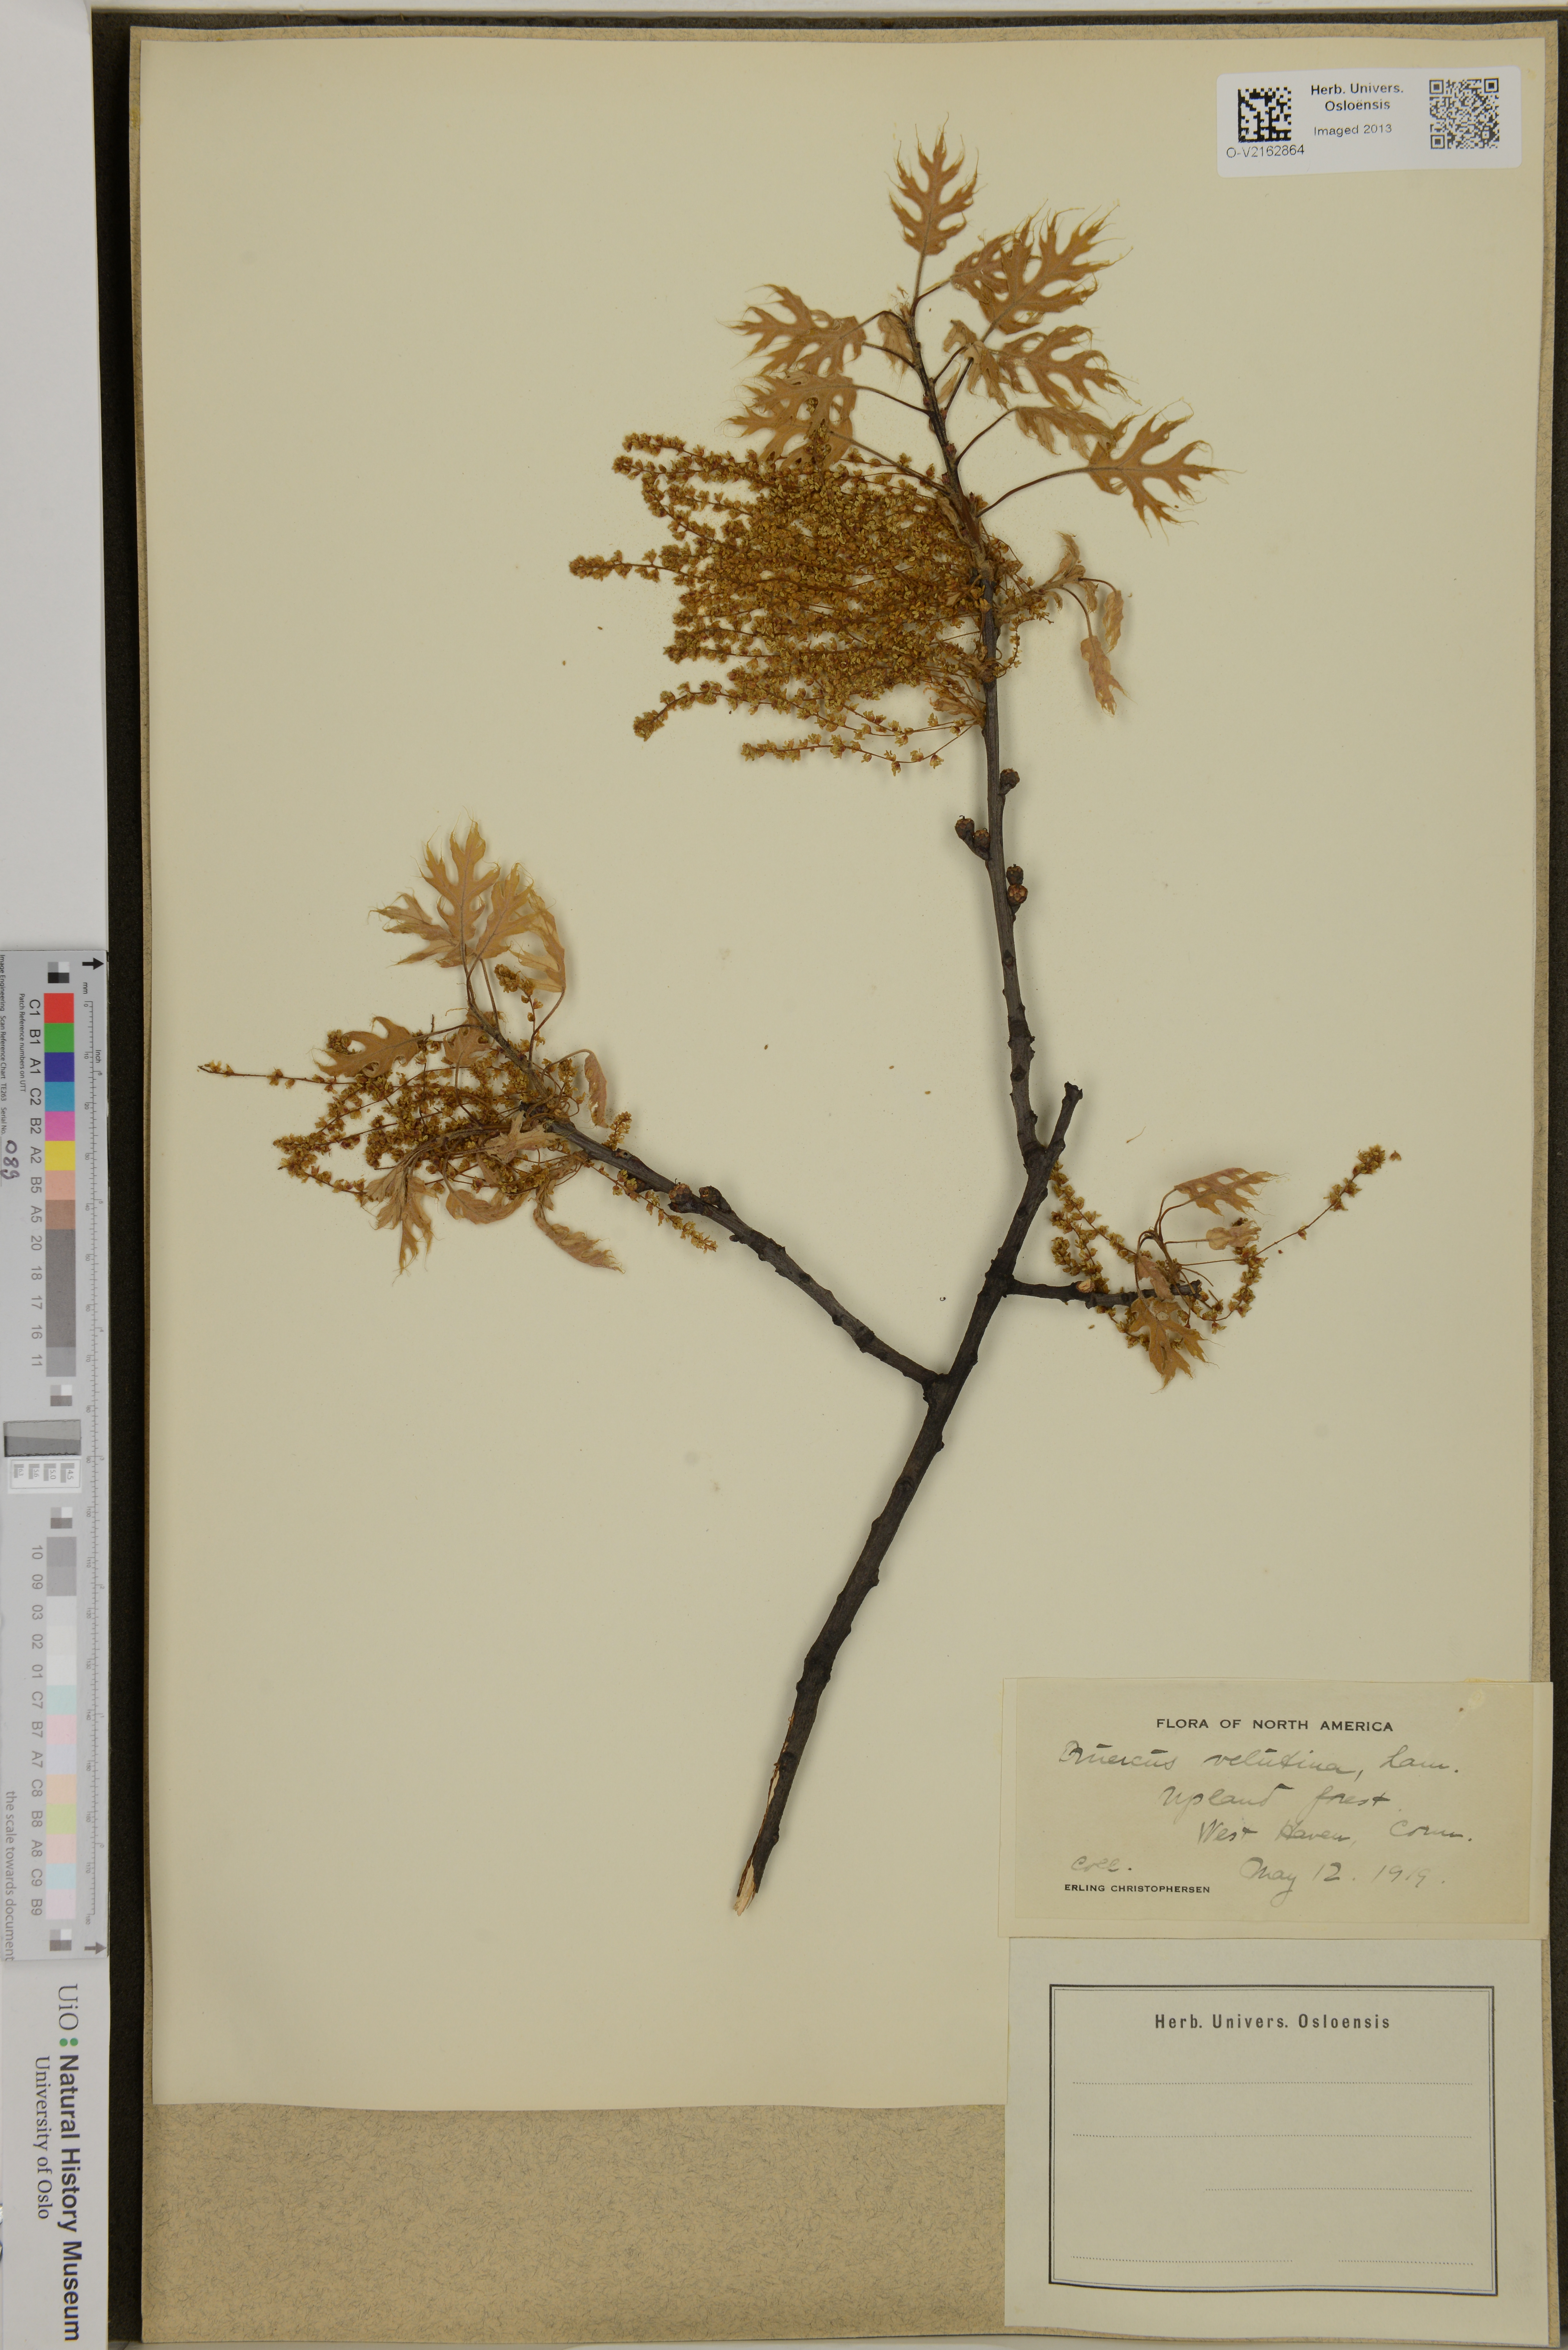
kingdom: Plantae
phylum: Tracheophyta
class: Magnoliopsida
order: Fagales
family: Fagaceae
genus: Quercus
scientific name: Quercus velutina
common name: Black oak
